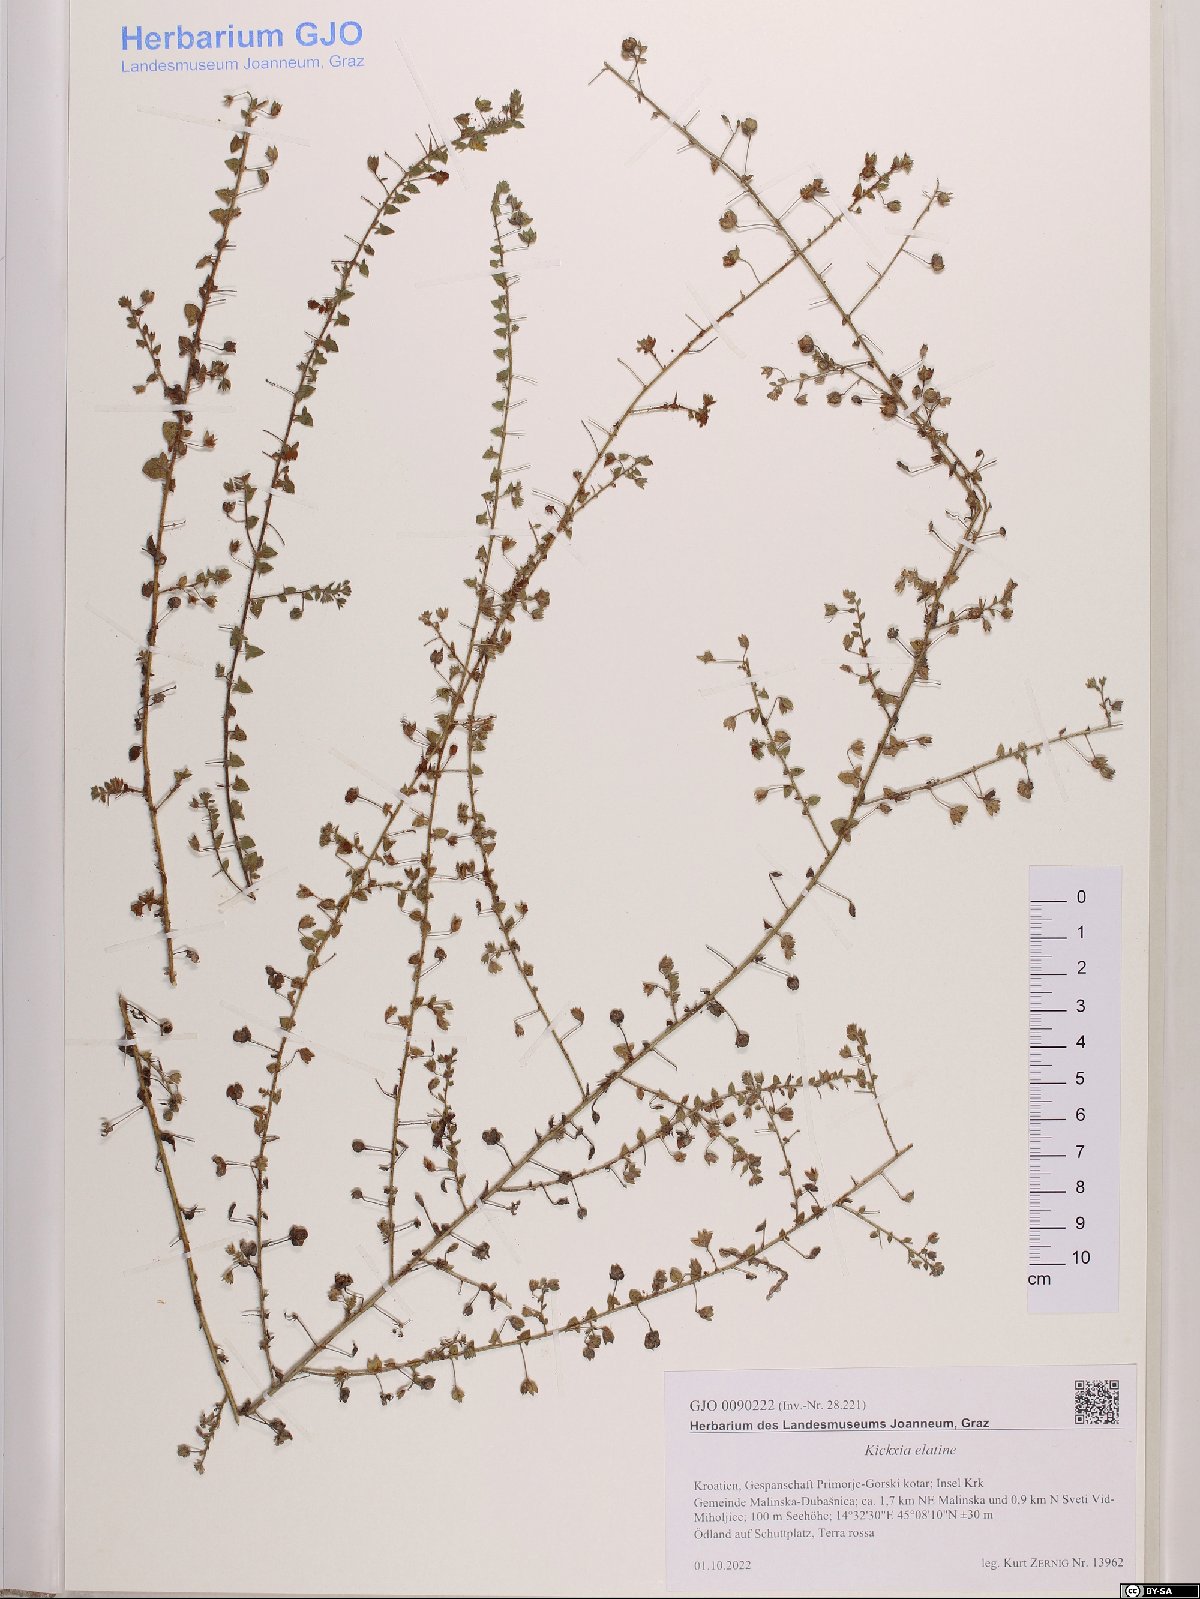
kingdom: Plantae
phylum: Tracheophyta
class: Magnoliopsida
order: Lamiales
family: Plantaginaceae
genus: Kickxia
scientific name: Kickxia elatine
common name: Sharp-leaved fluellen
